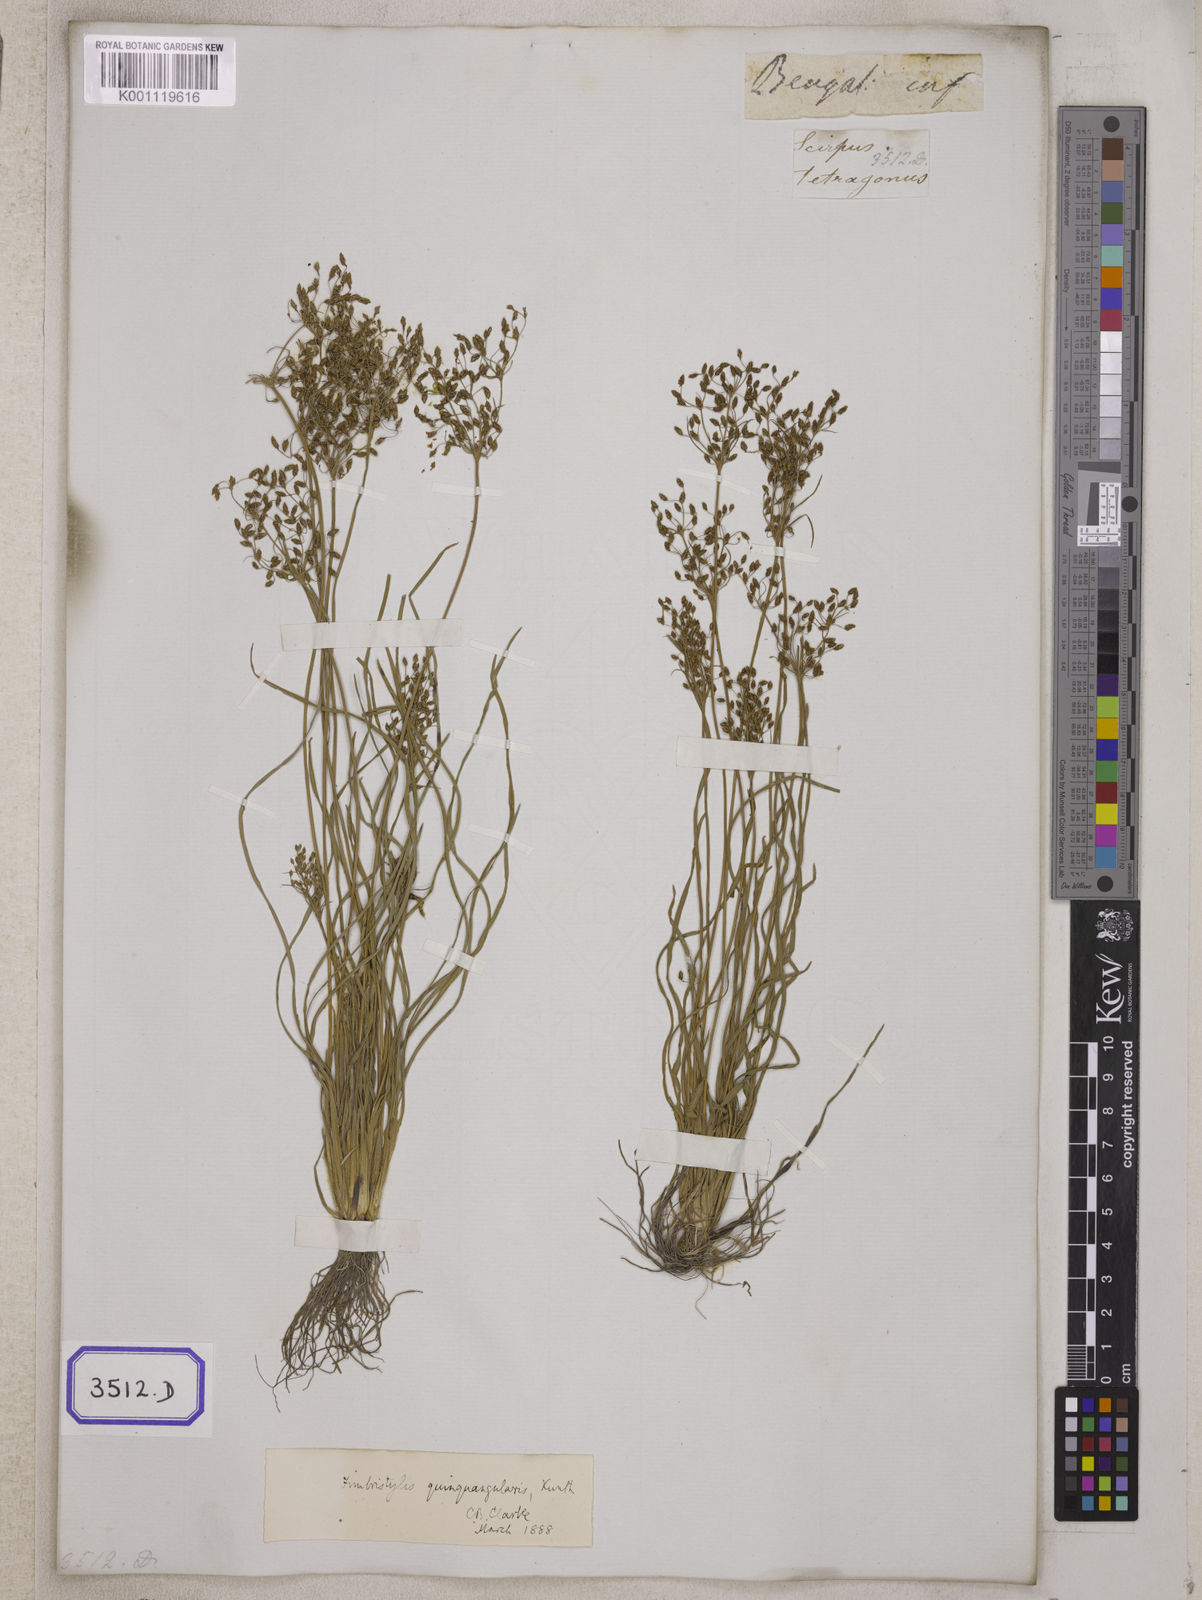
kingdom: Plantae
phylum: Tracheophyta
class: Liliopsida
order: Poales
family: Cyperaceae
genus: Fimbristylis
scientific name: Fimbristylis
